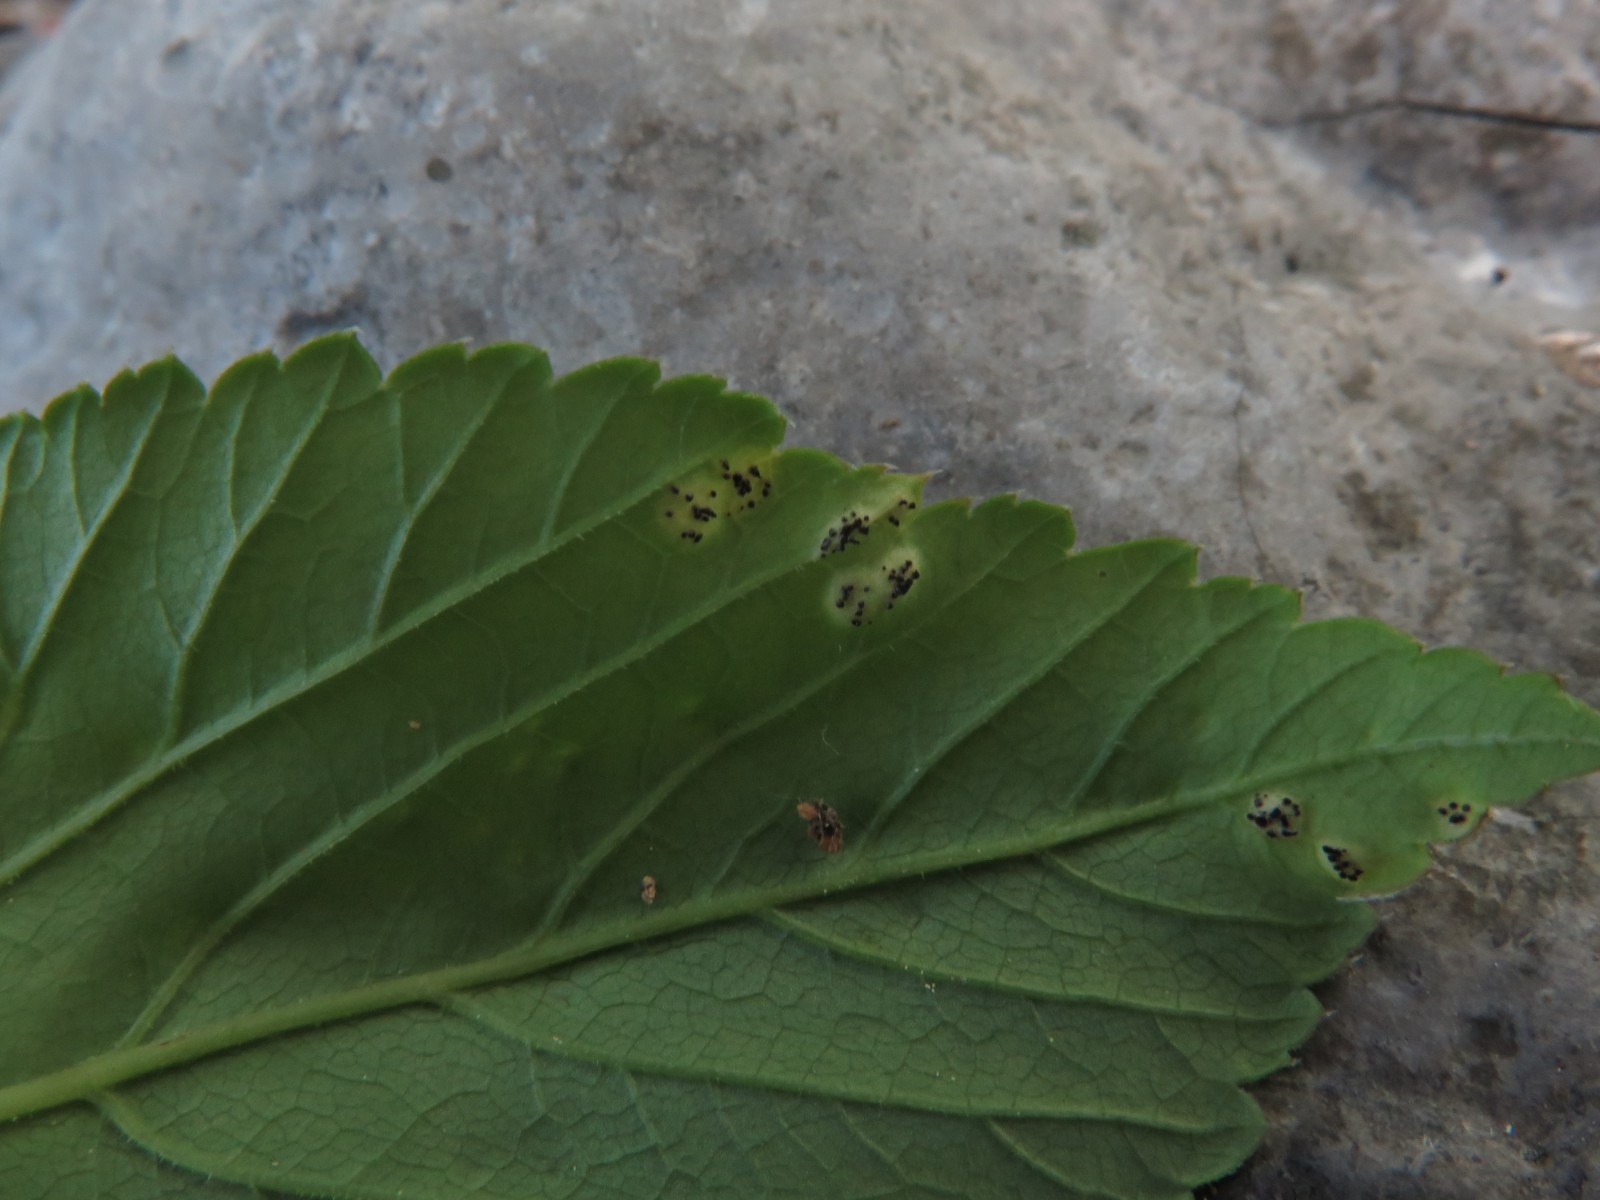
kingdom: Fungi
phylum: Basidiomycota
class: Pucciniomycetes
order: Pucciniales
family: Pucciniaceae
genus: Puccinia
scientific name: Puccinia
